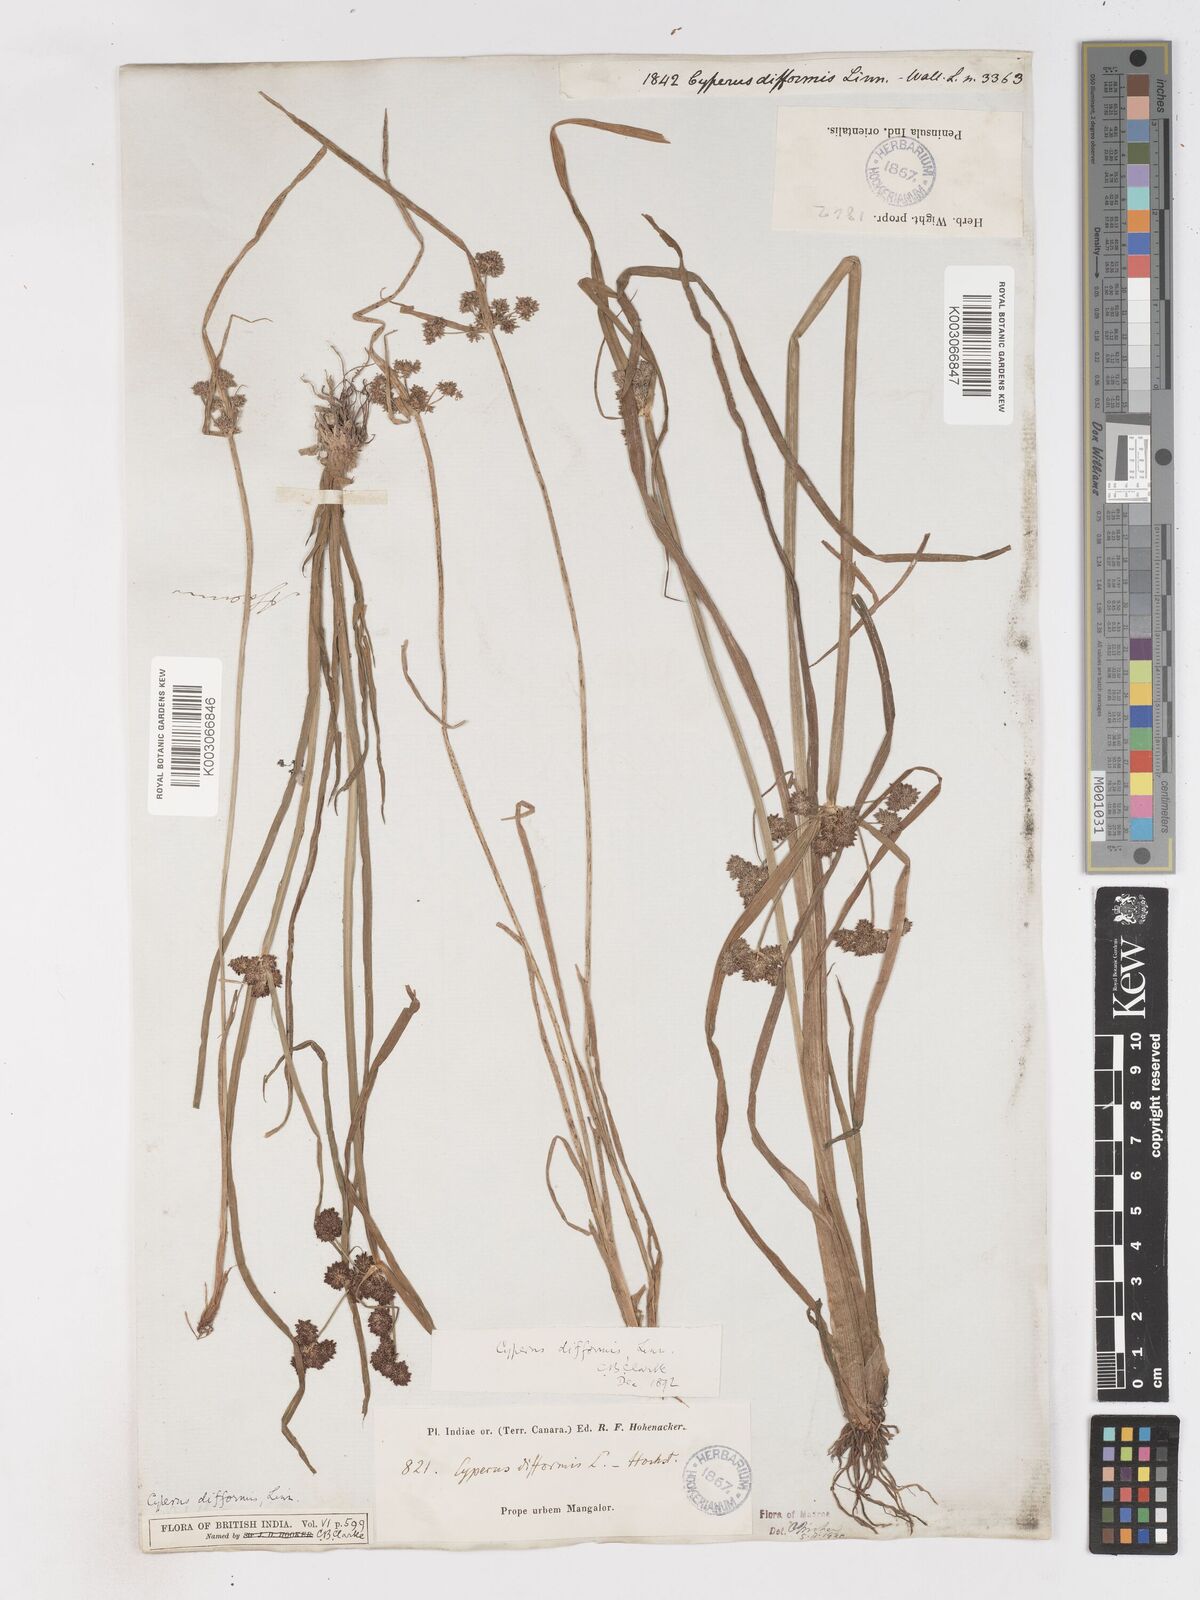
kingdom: Plantae
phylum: Tracheophyta
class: Liliopsida
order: Poales
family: Cyperaceae
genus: Cyperus
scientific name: Cyperus difformis
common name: Variable flatsedge
